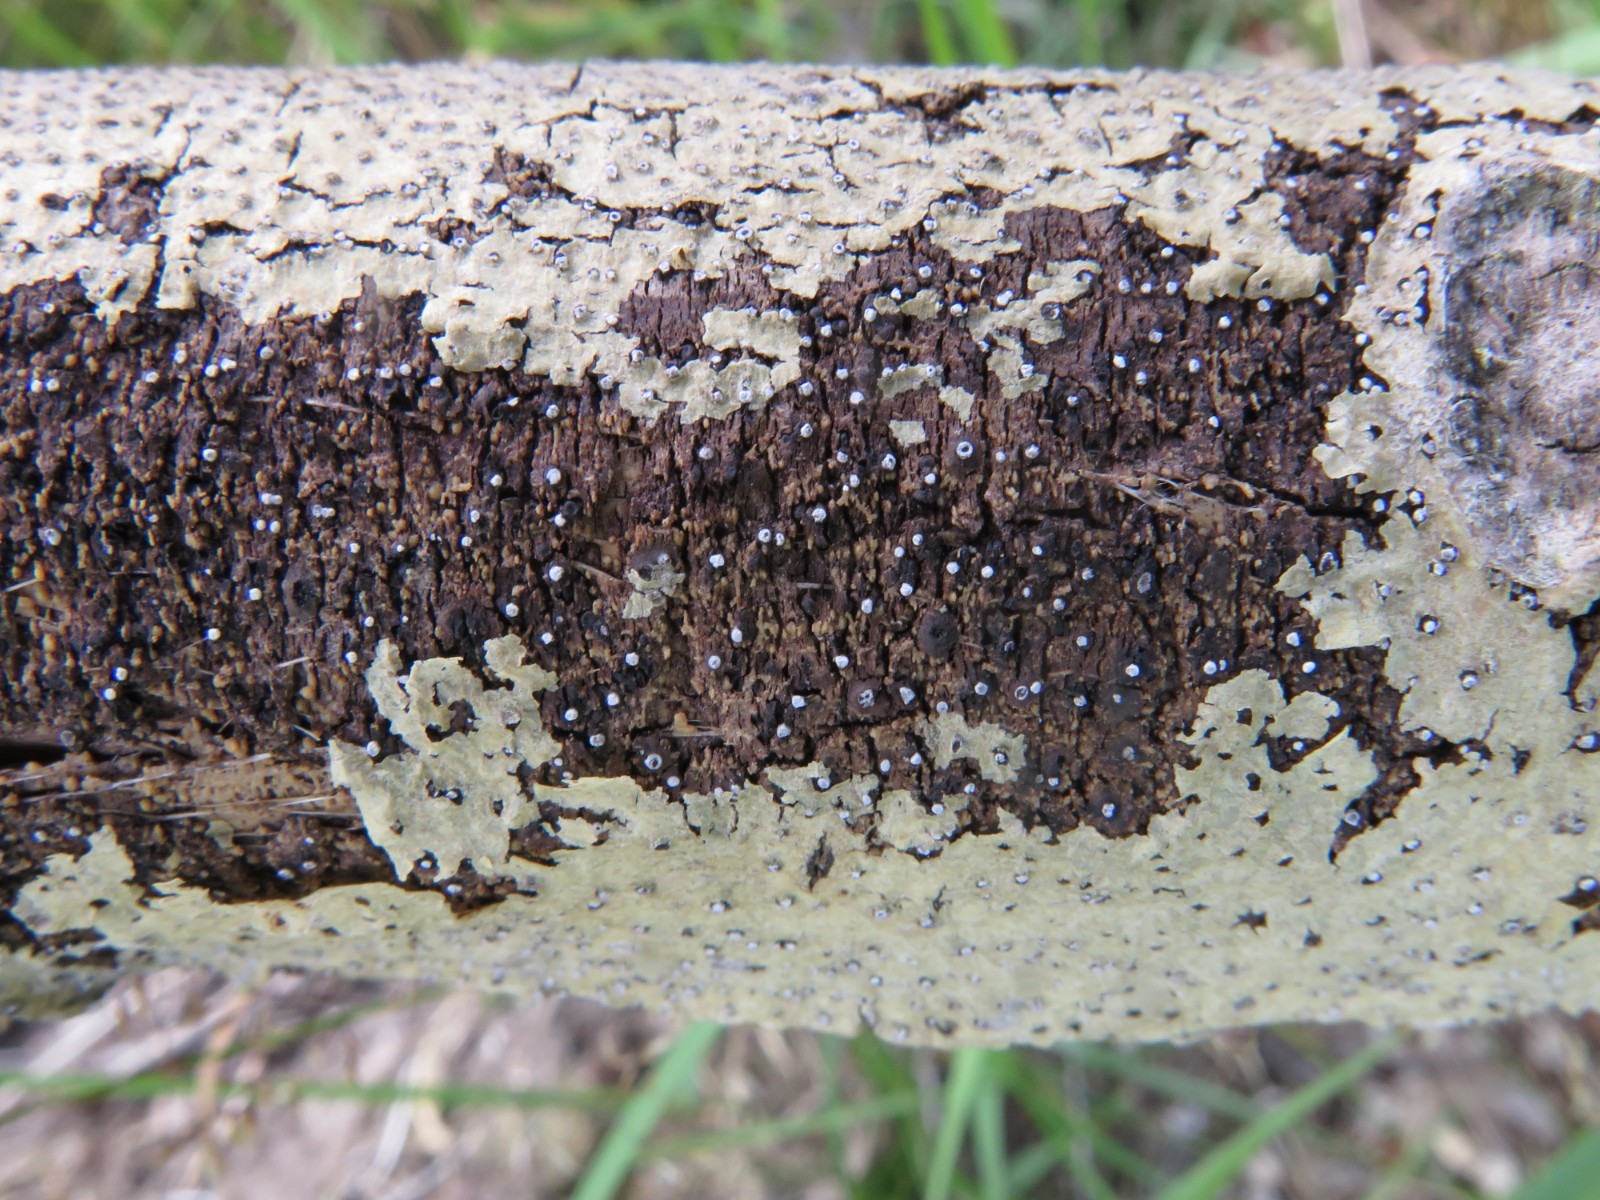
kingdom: Fungi
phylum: Ascomycota
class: Sordariomycetes
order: Diaporthales
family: Valsaceae
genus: Cytospora
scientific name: Cytospora nivea
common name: hvidskivet kulknippe
